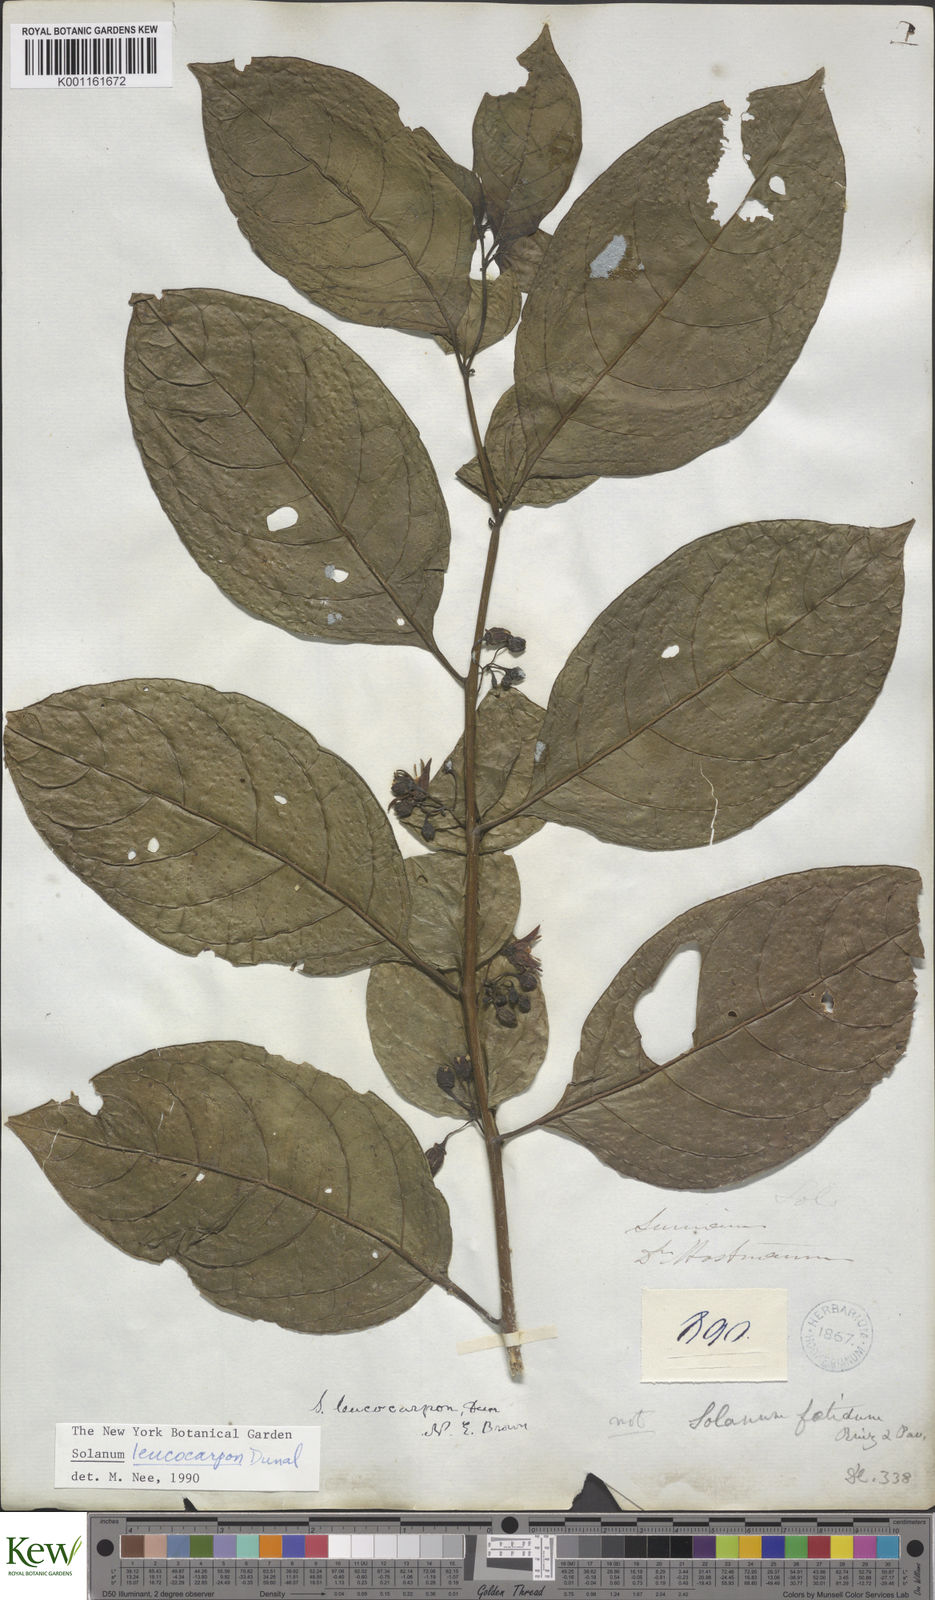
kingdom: Plantae
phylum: Tracheophyta
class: Magnoliopsida
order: Solanales
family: Solanaceae
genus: Solanum
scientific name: Solanum leucocarpon
